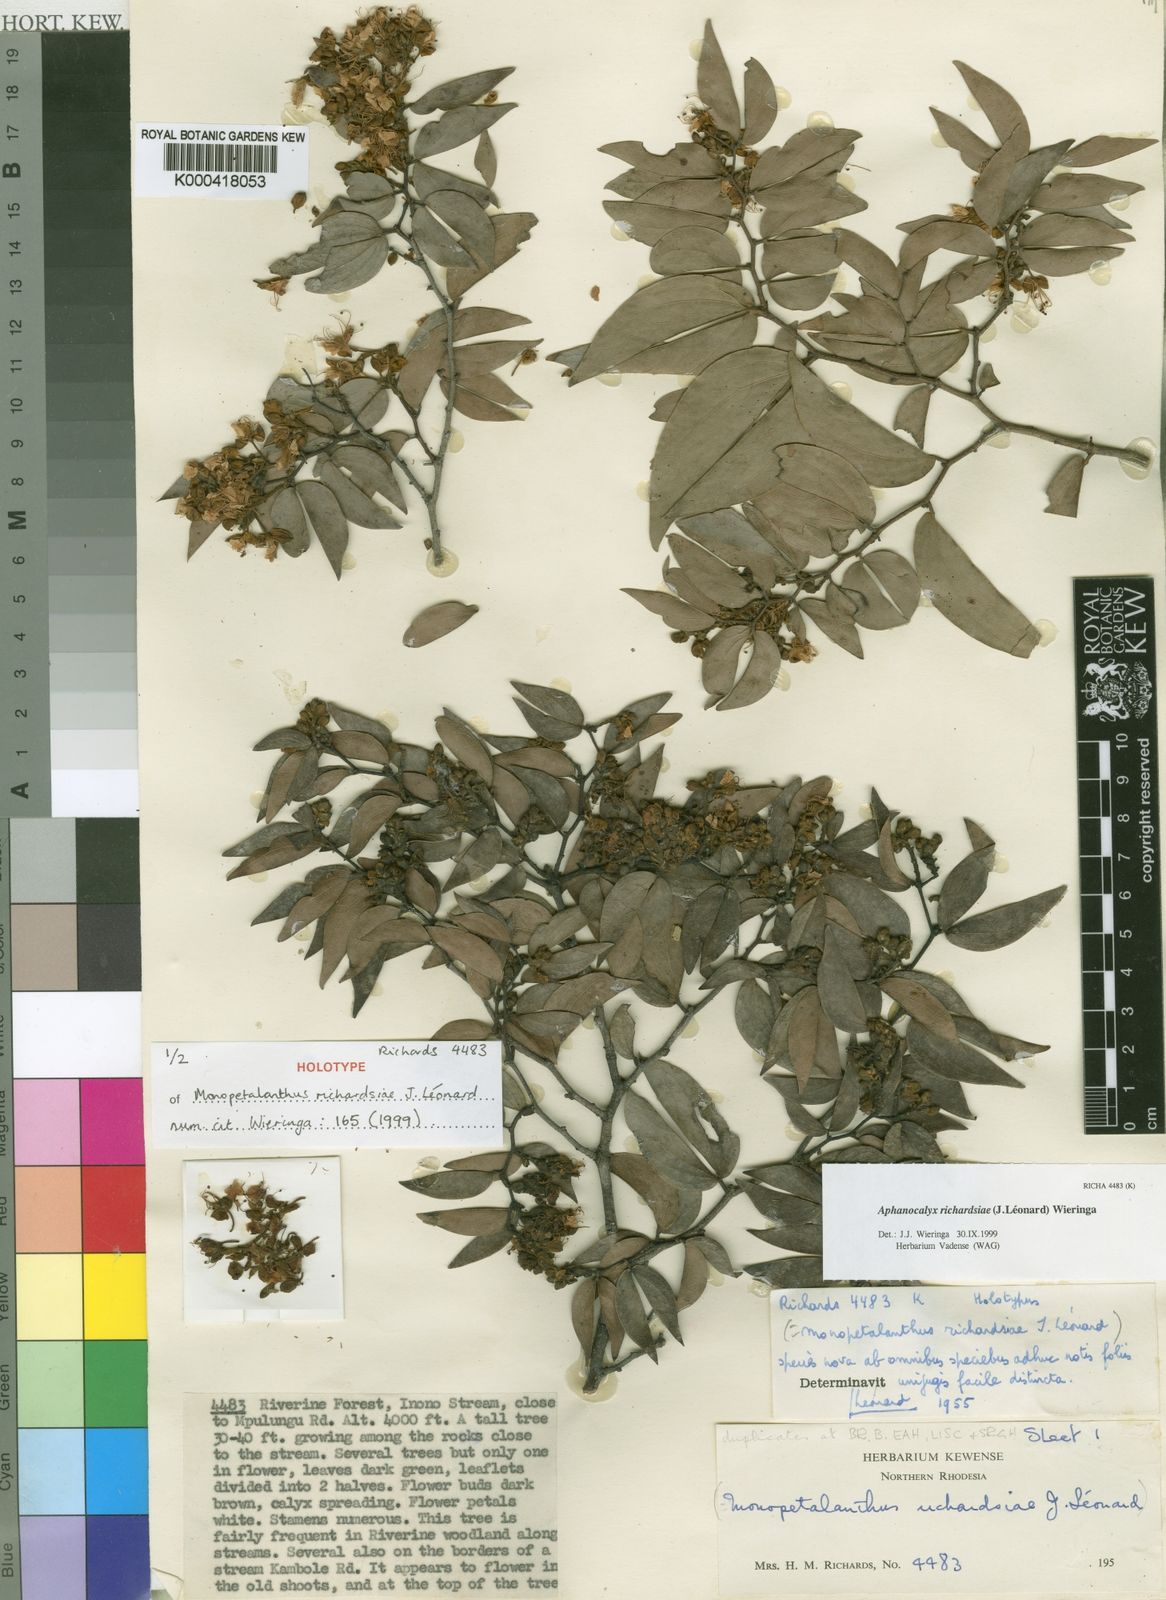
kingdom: Plantae
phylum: Tracheophyta
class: Magnoliopsida
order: Fabales
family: Fabaceae
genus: Aphanocalyx
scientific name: Aphanocalyx
